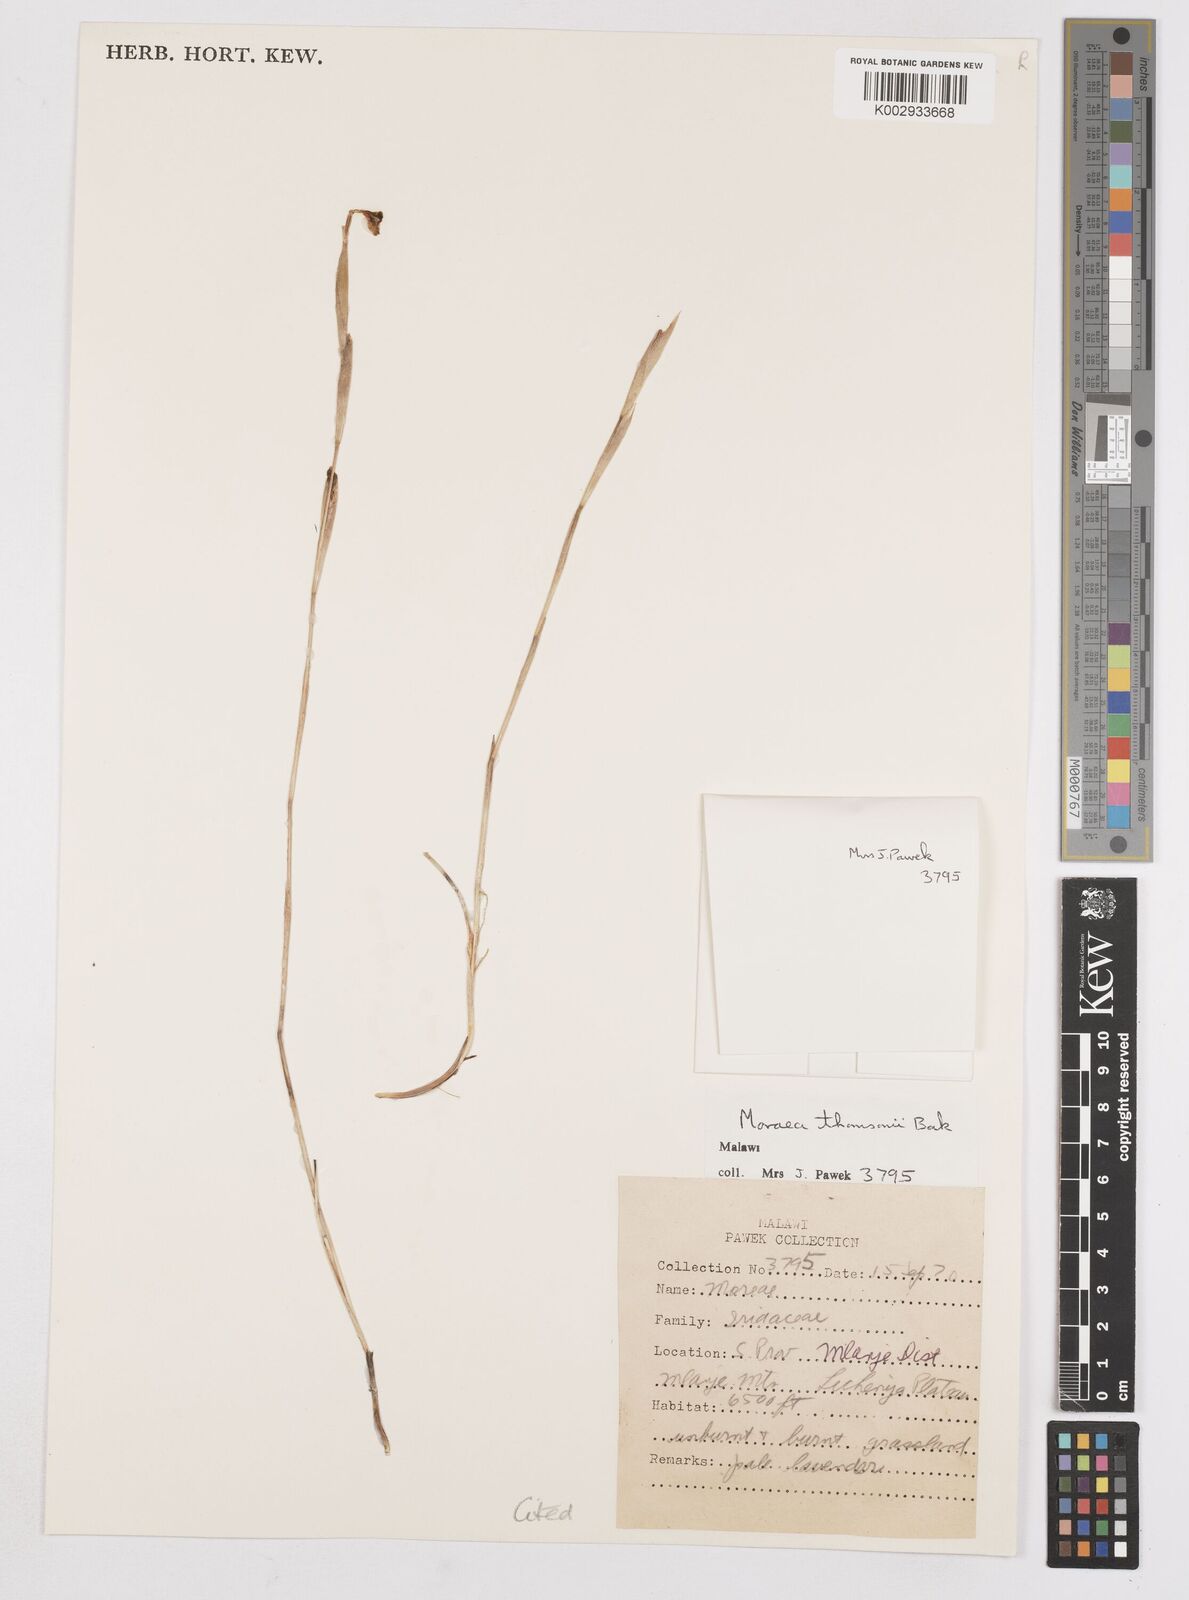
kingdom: Plantae
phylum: Tracheophyta
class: Liliopsida
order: Asparagales
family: Iridaceae
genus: Moraea
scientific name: Moraea thomsonii
